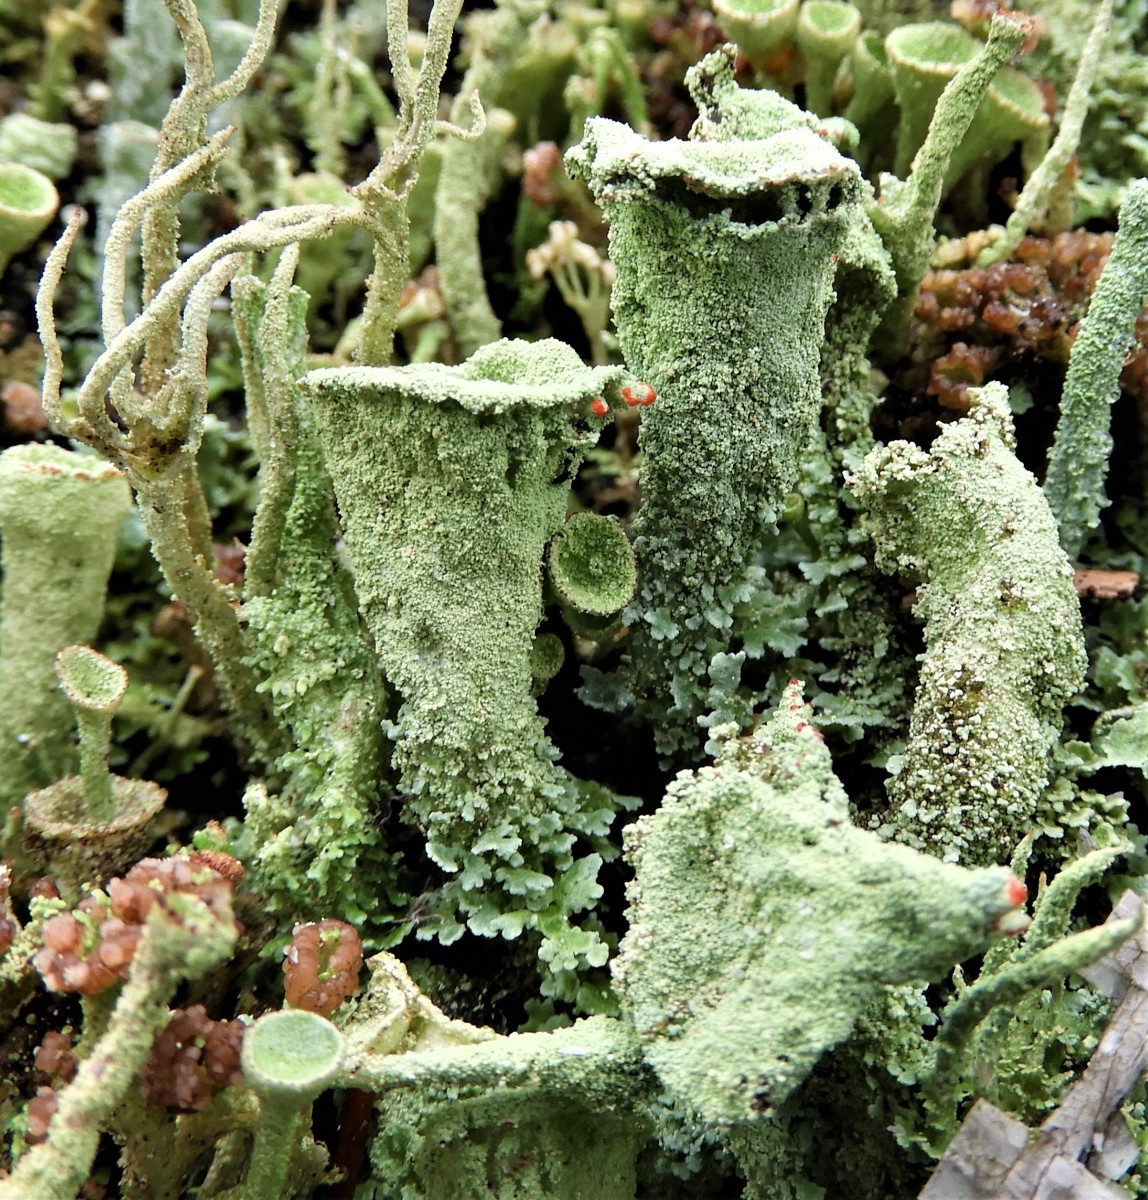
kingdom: Fungi
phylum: Ascomycota
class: Lecanoromycetes
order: Lecanorales
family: Cladoniaceae
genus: Cladonia
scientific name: Cladonia
